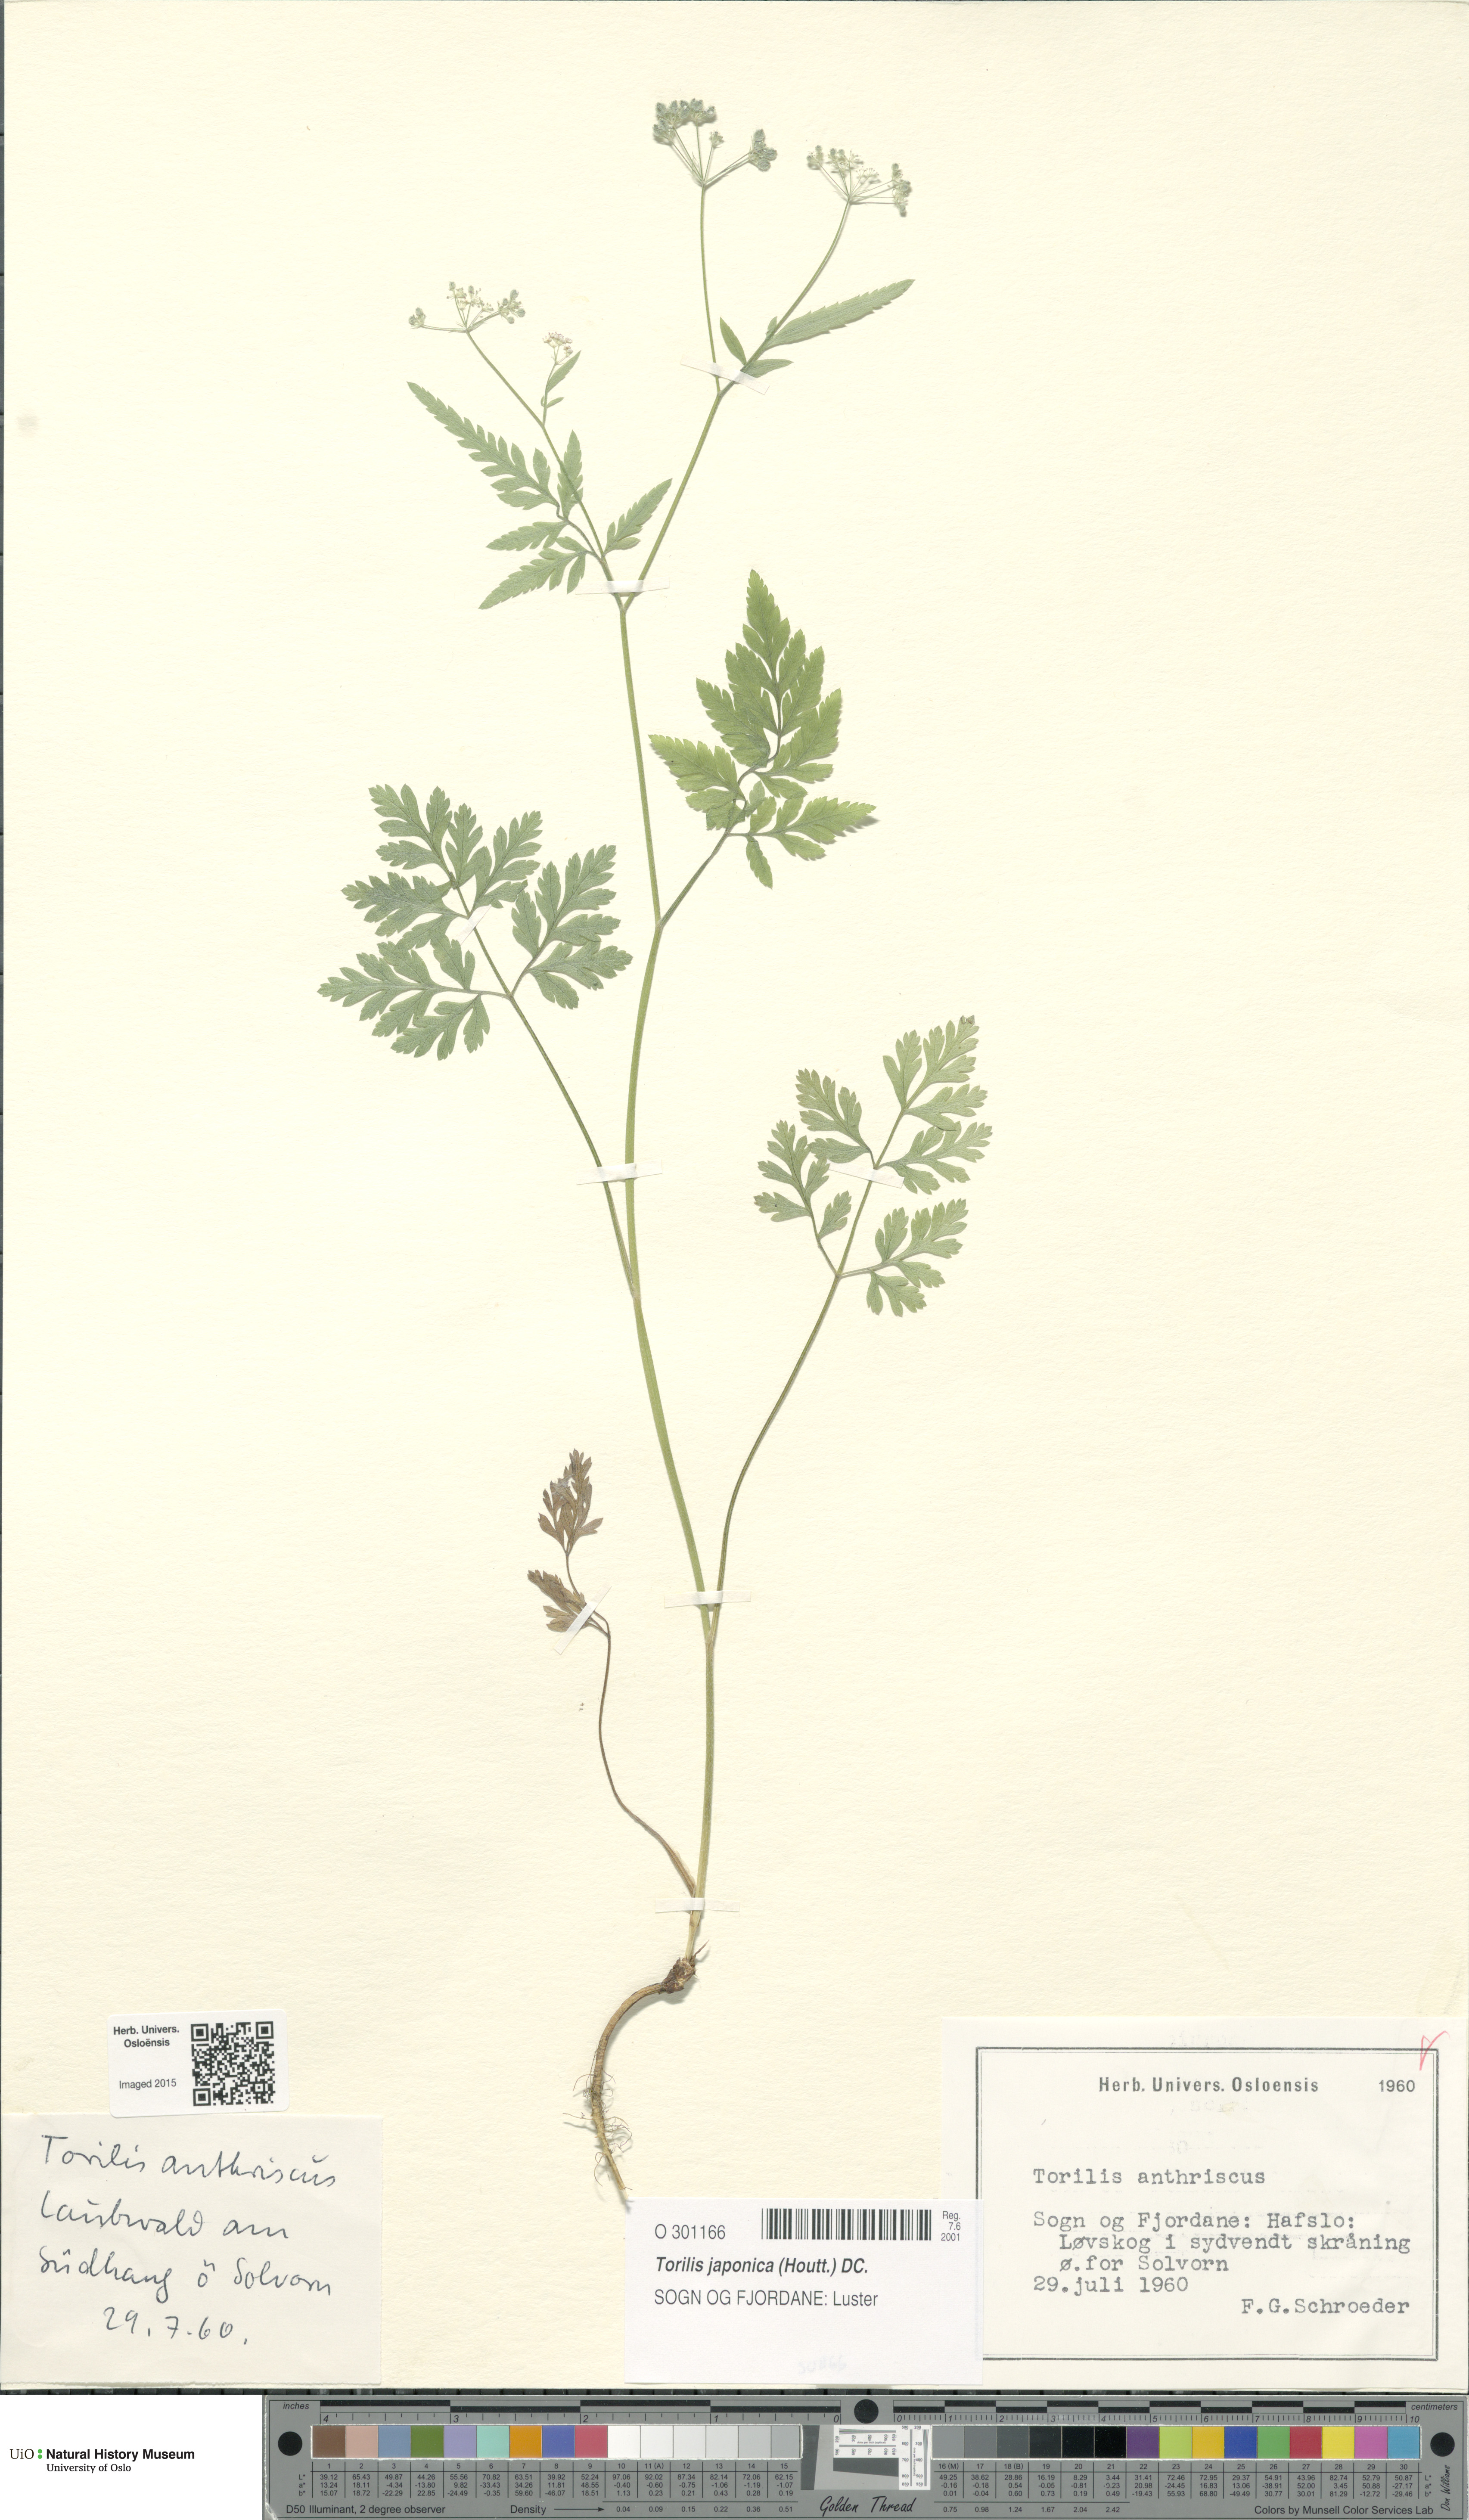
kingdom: Plantae
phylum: Tracheophyta
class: Magnoliopsida
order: Apiales
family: Apiaceae
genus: Torilis
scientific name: Torilis japonica
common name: Upright hedge-parsley
